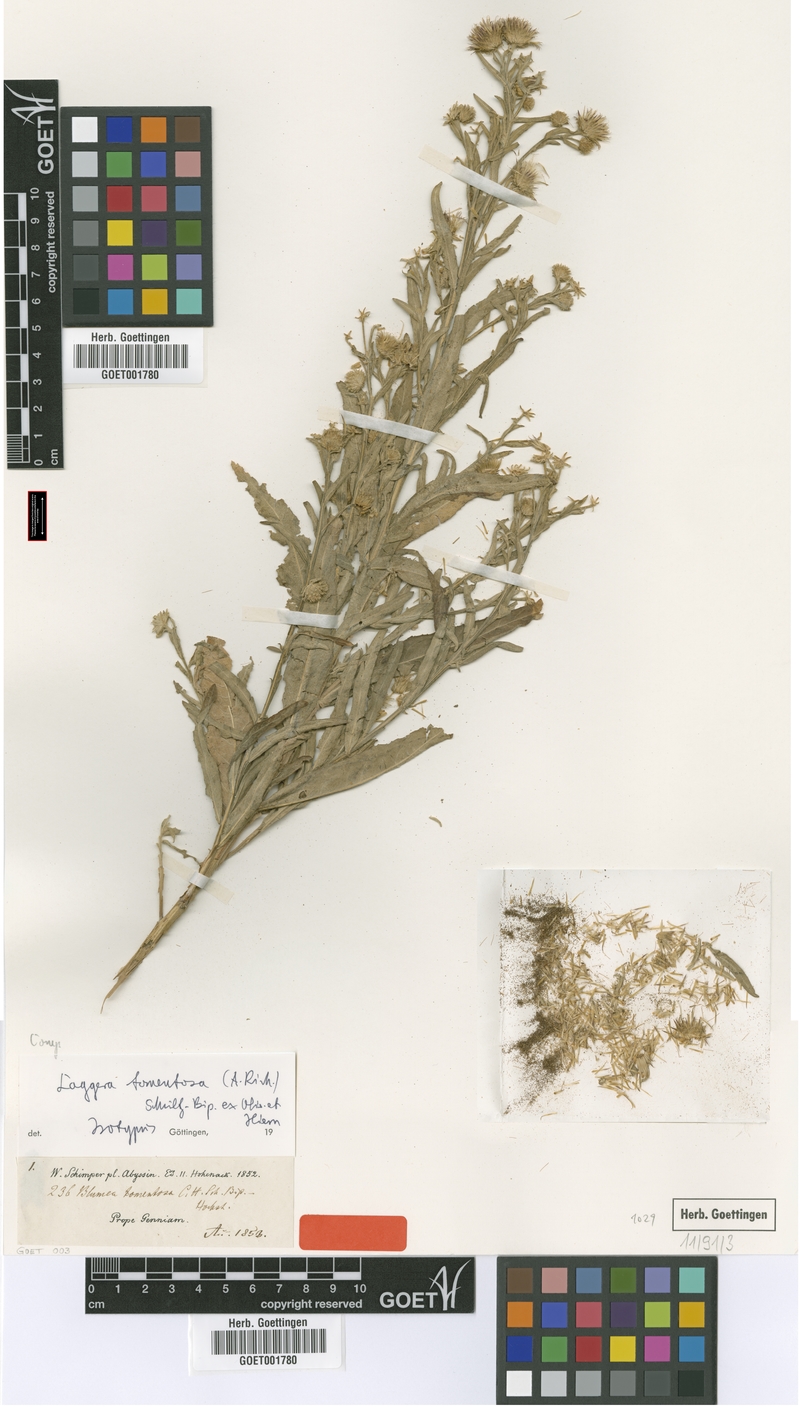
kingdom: Plantae
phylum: Tracheophyta
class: Magnoliopsida
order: Asterales
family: Asteraceae
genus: Laggera
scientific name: Laggera tomentosa
